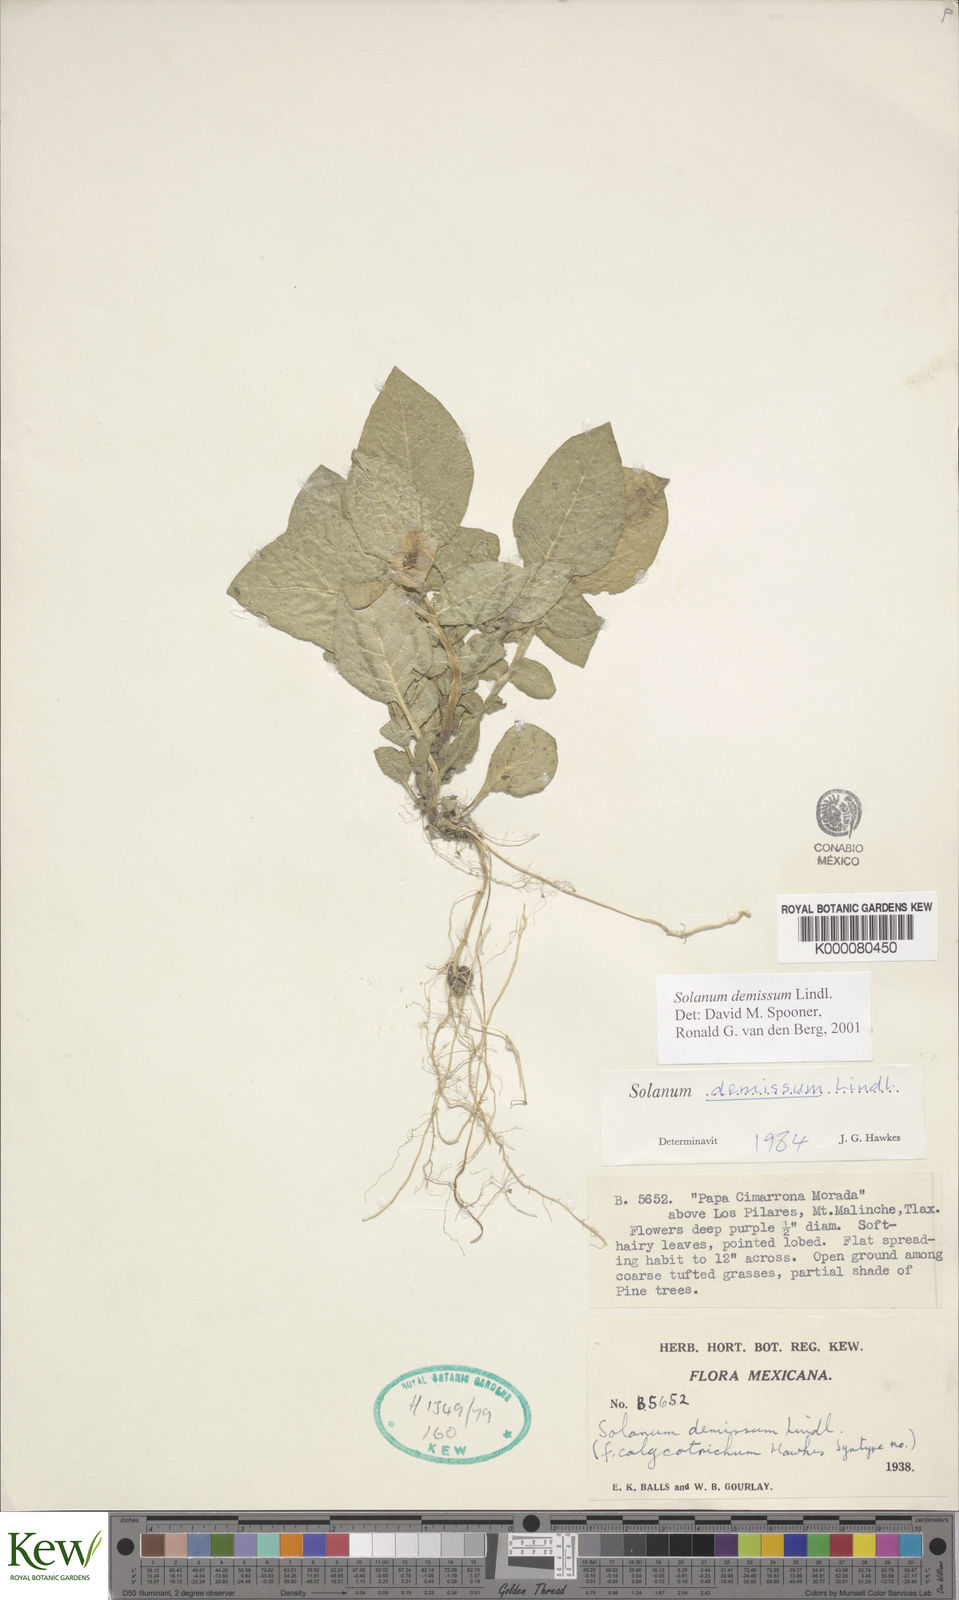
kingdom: Plantae
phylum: Tracheophyta
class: Magnoliopsida
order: Solanales
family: Solanaceae
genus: Solanum
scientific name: Solanum demissum
